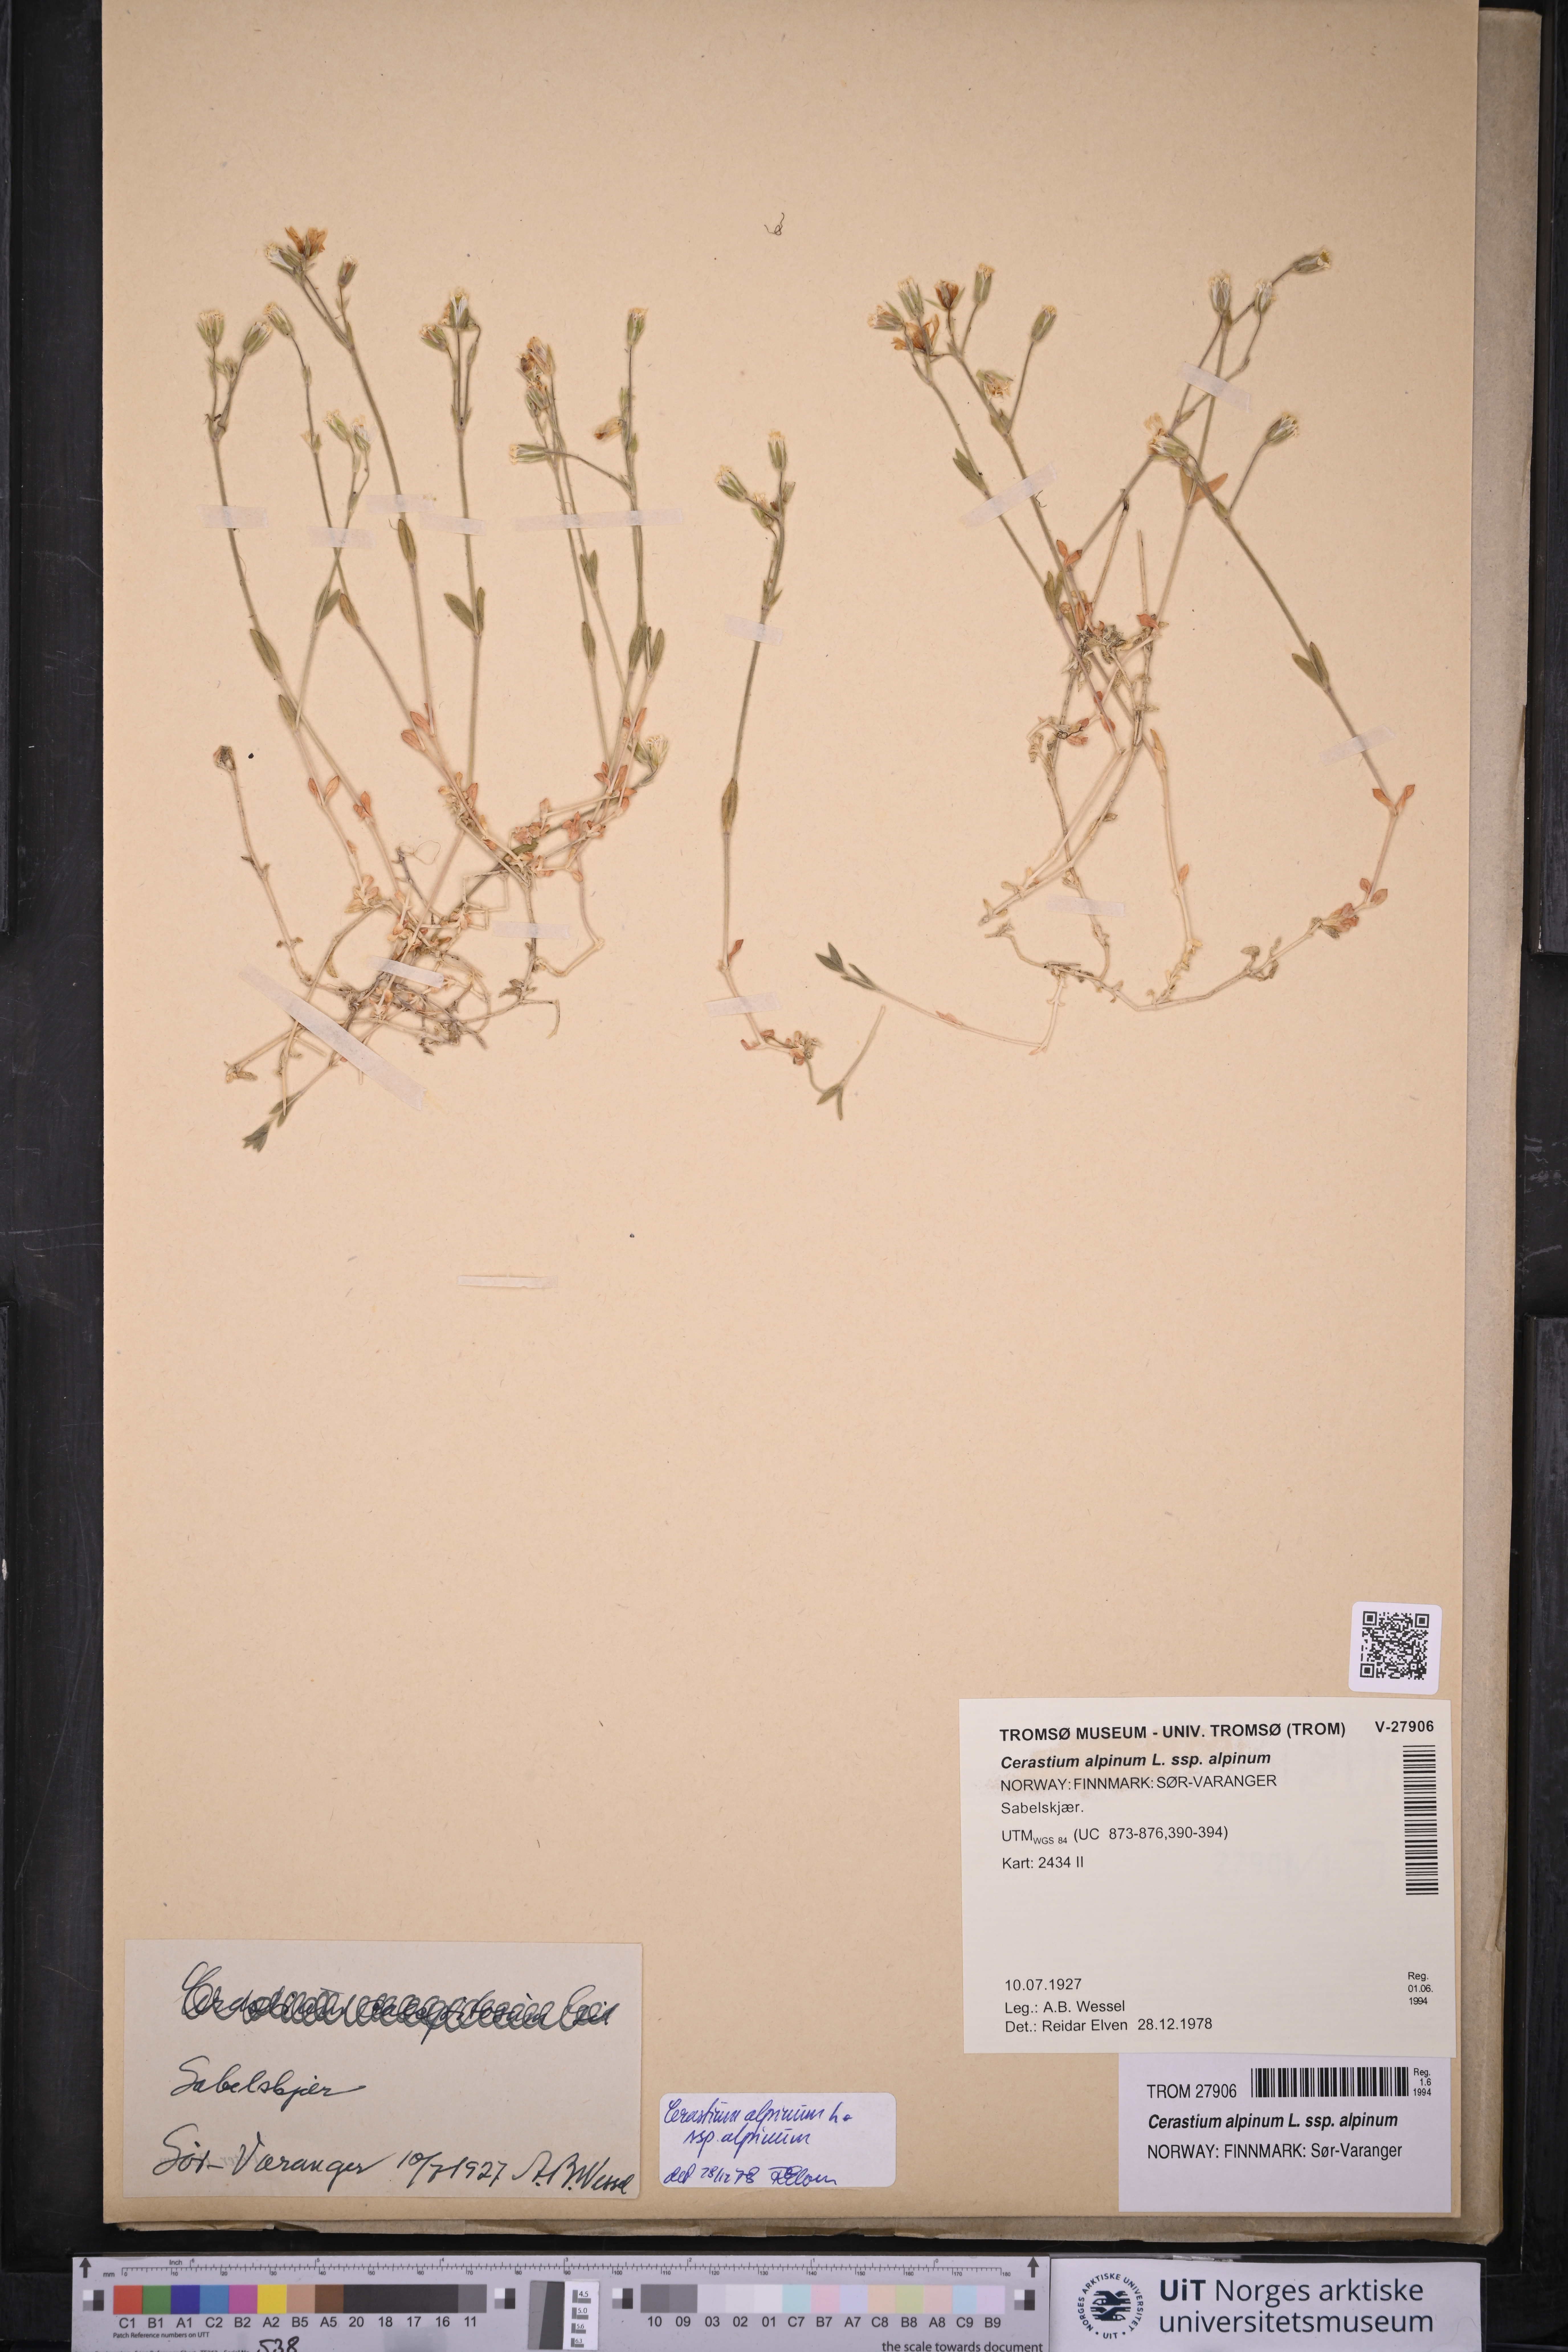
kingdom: Plantae
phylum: Tracheophyta
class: Magnoliopsida
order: Caryophyllales
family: Caryophyllaceae
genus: Cerastium
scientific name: Cerastium alpinum
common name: Alpine mouse-ear
